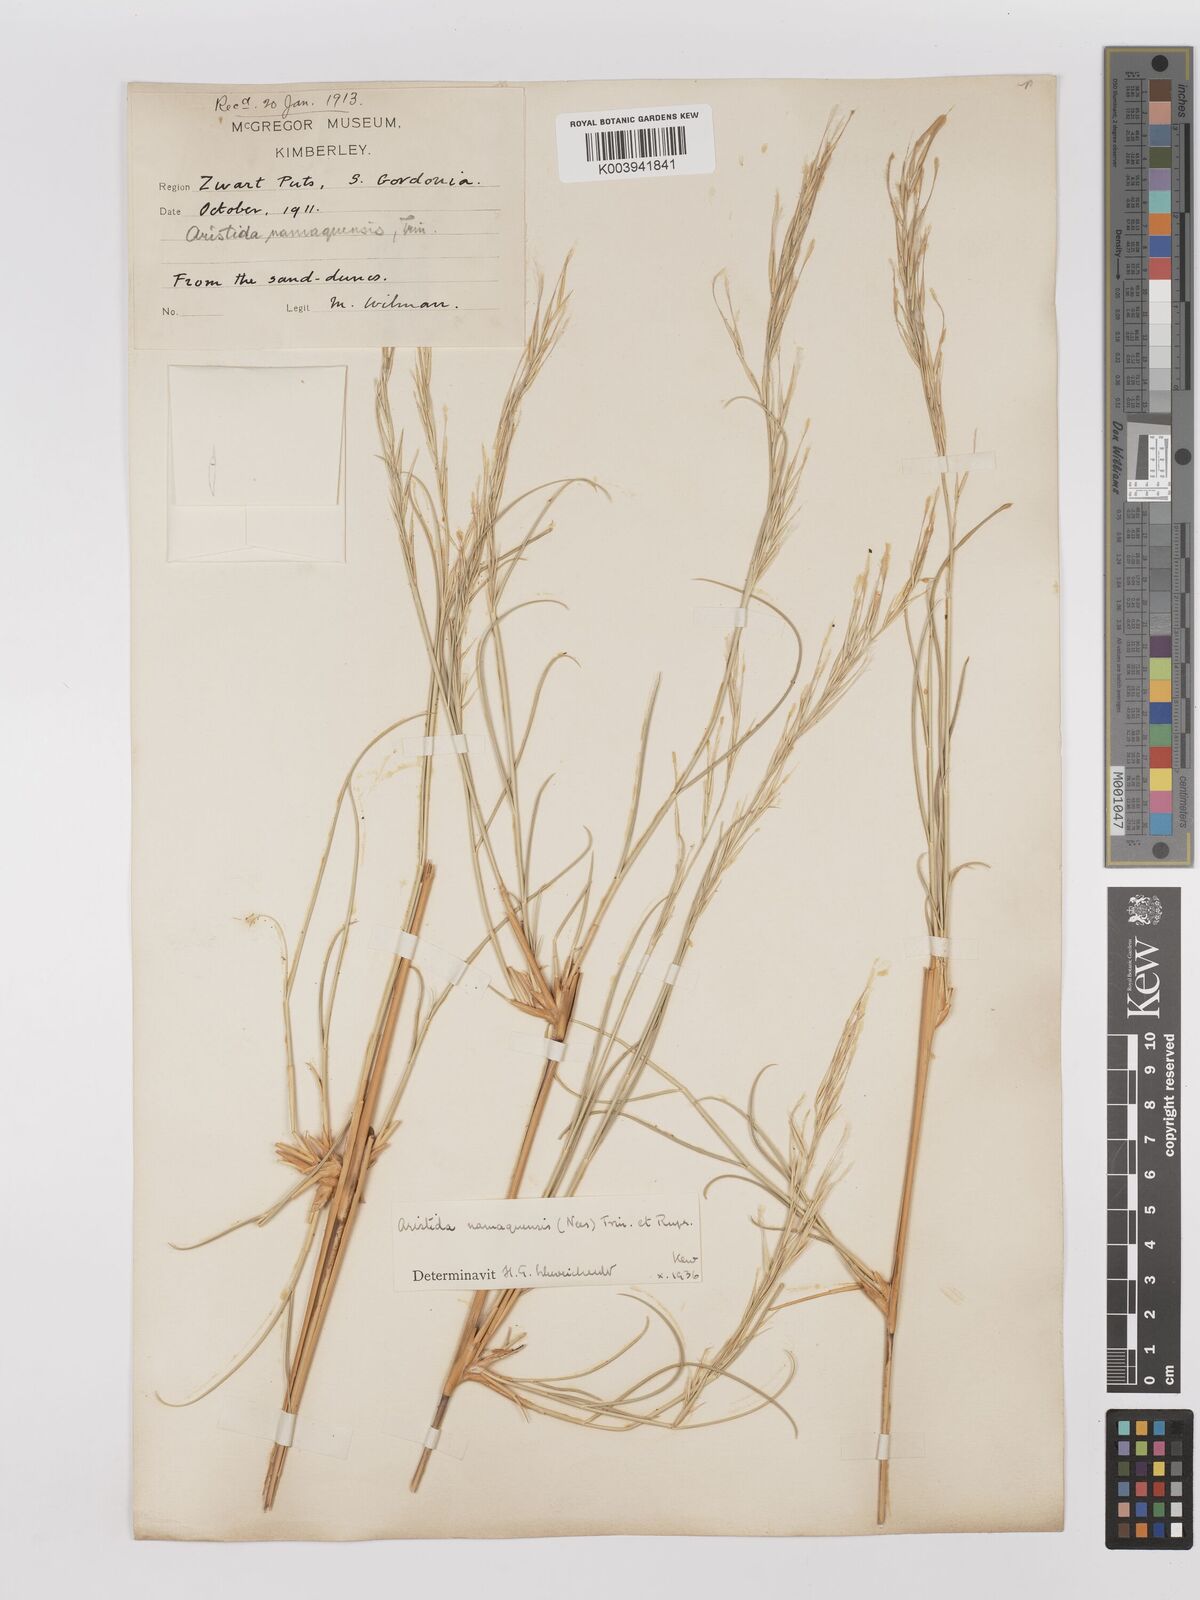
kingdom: Plantae
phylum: Tracheophyta
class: Liliopsida
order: Poales
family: Poaceae
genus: Stipagrostis
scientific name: Stipagrostis namaquensis
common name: River bushman grass
